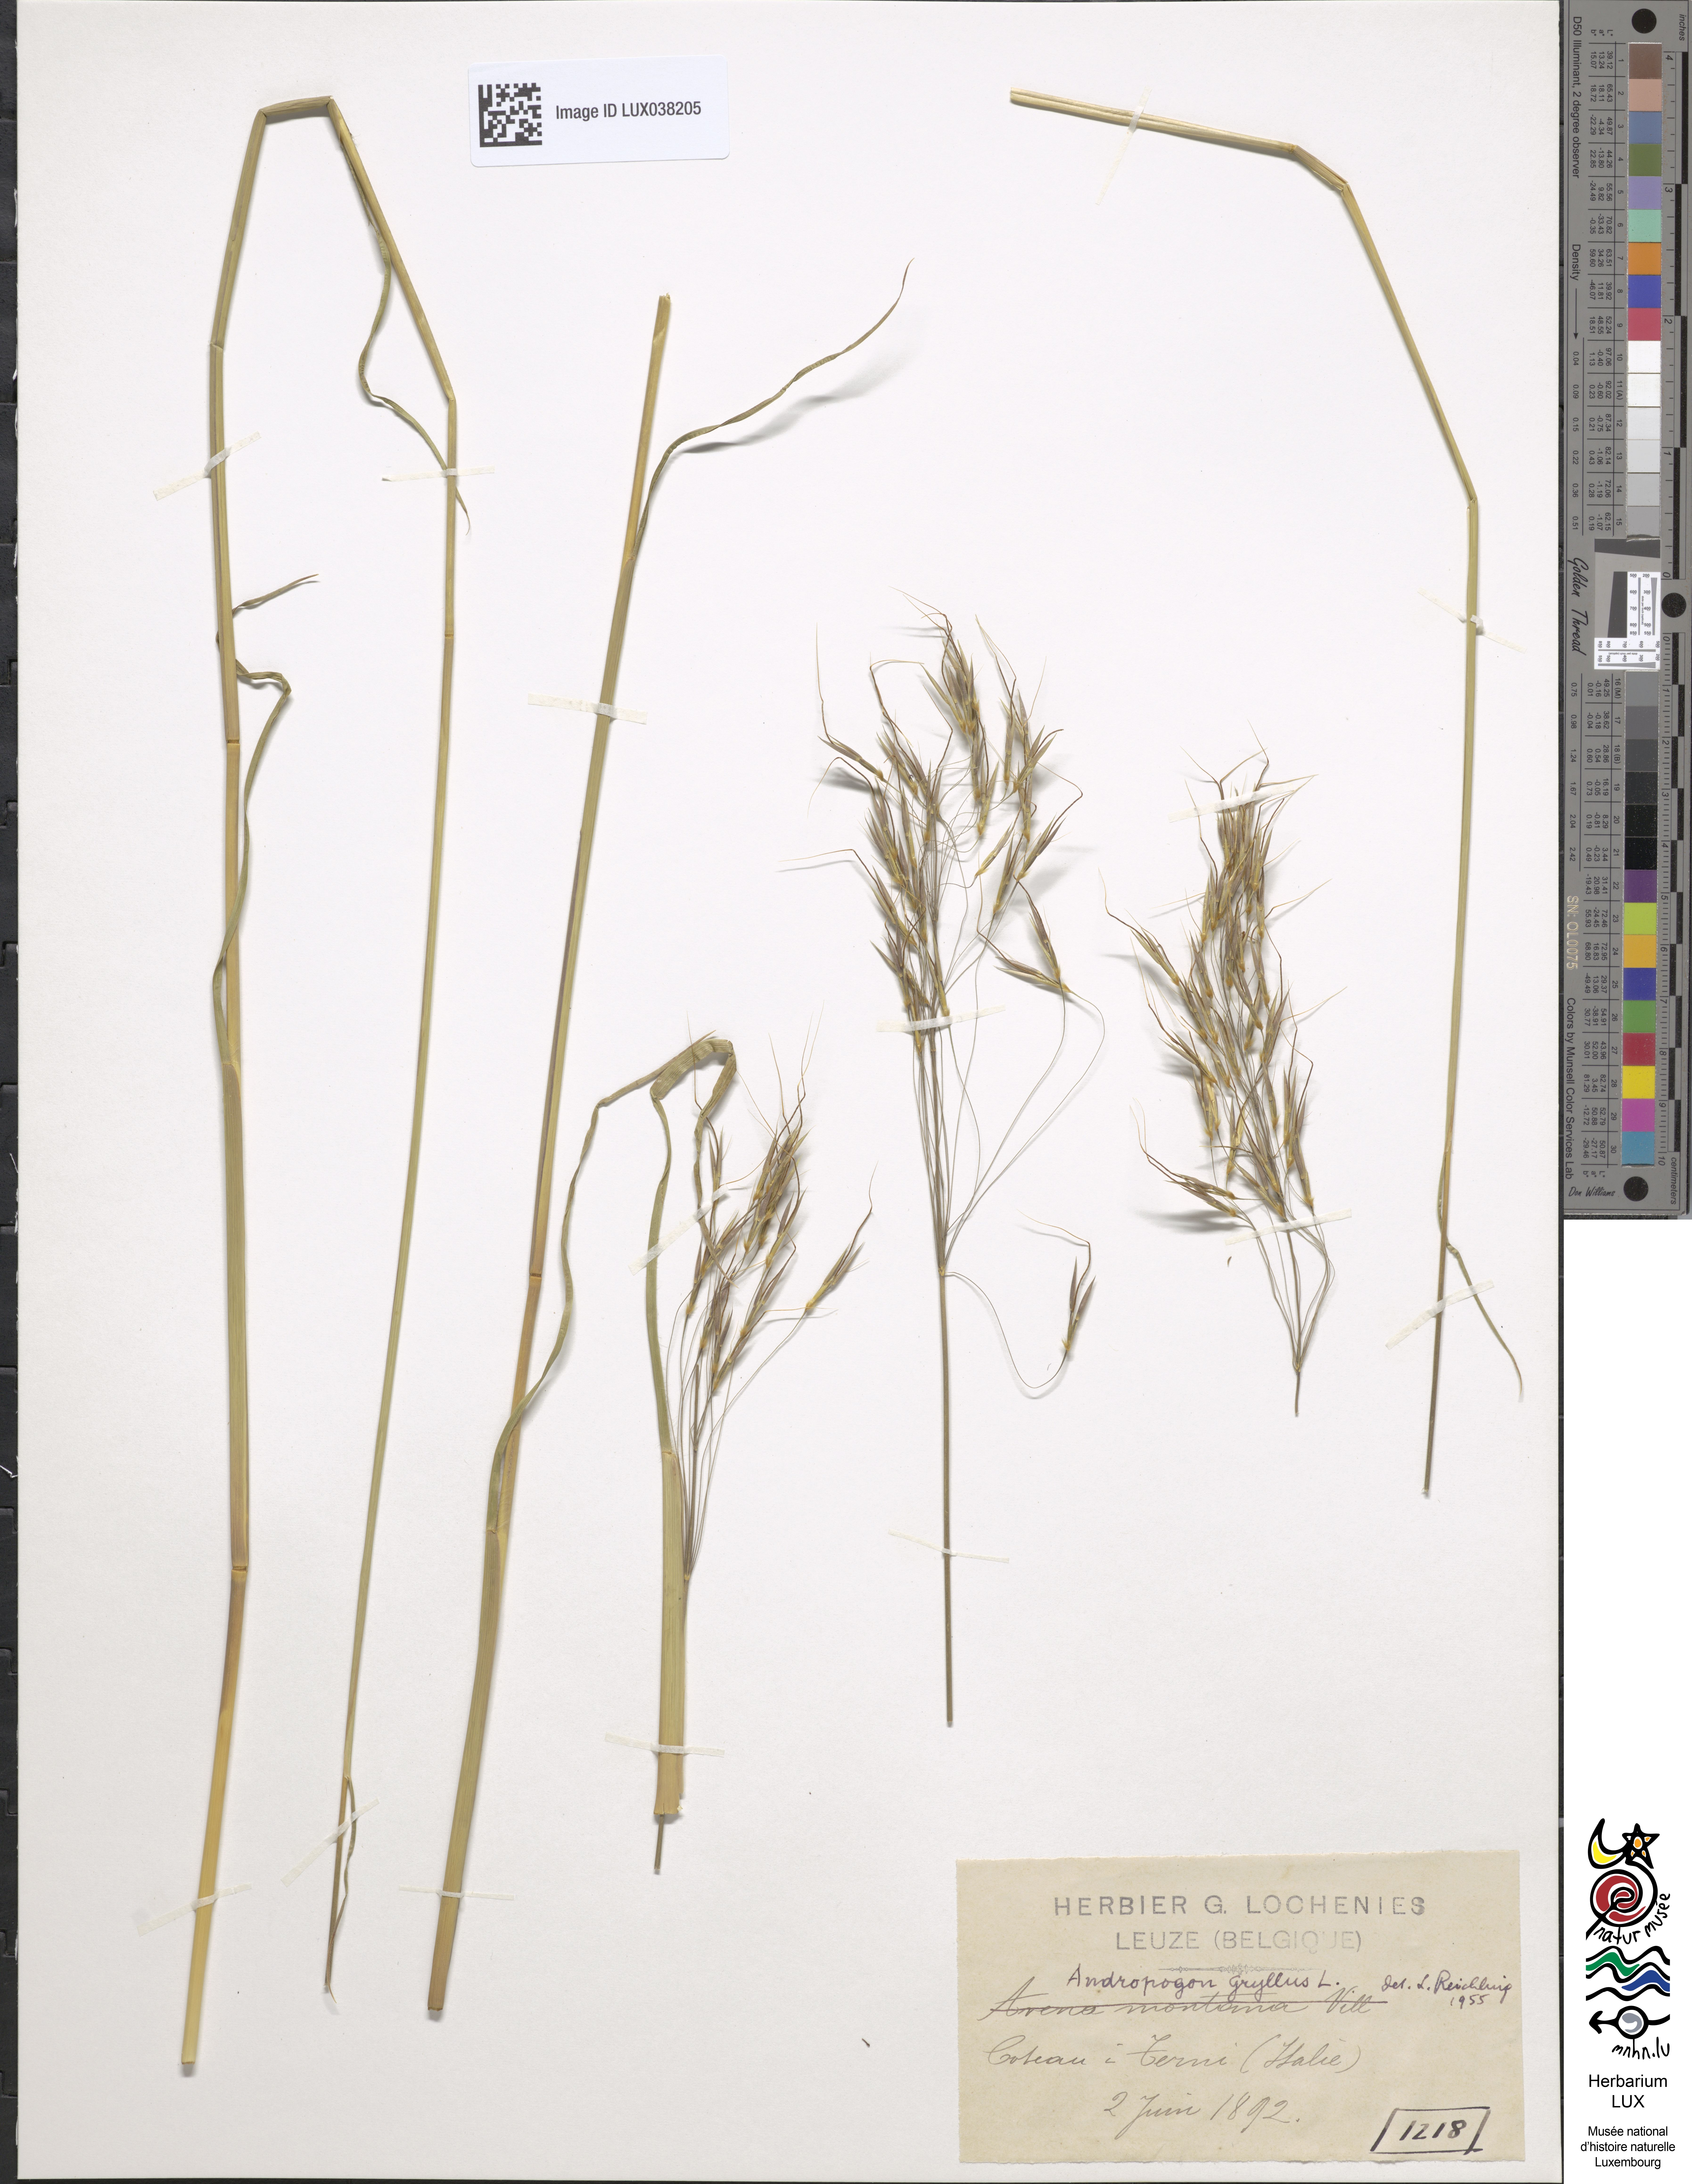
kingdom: Plantae
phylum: Tracheophyta
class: Liliopsida
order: Poales
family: Poaceae
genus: Chrysopogon
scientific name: Chrysopogon gryllus
